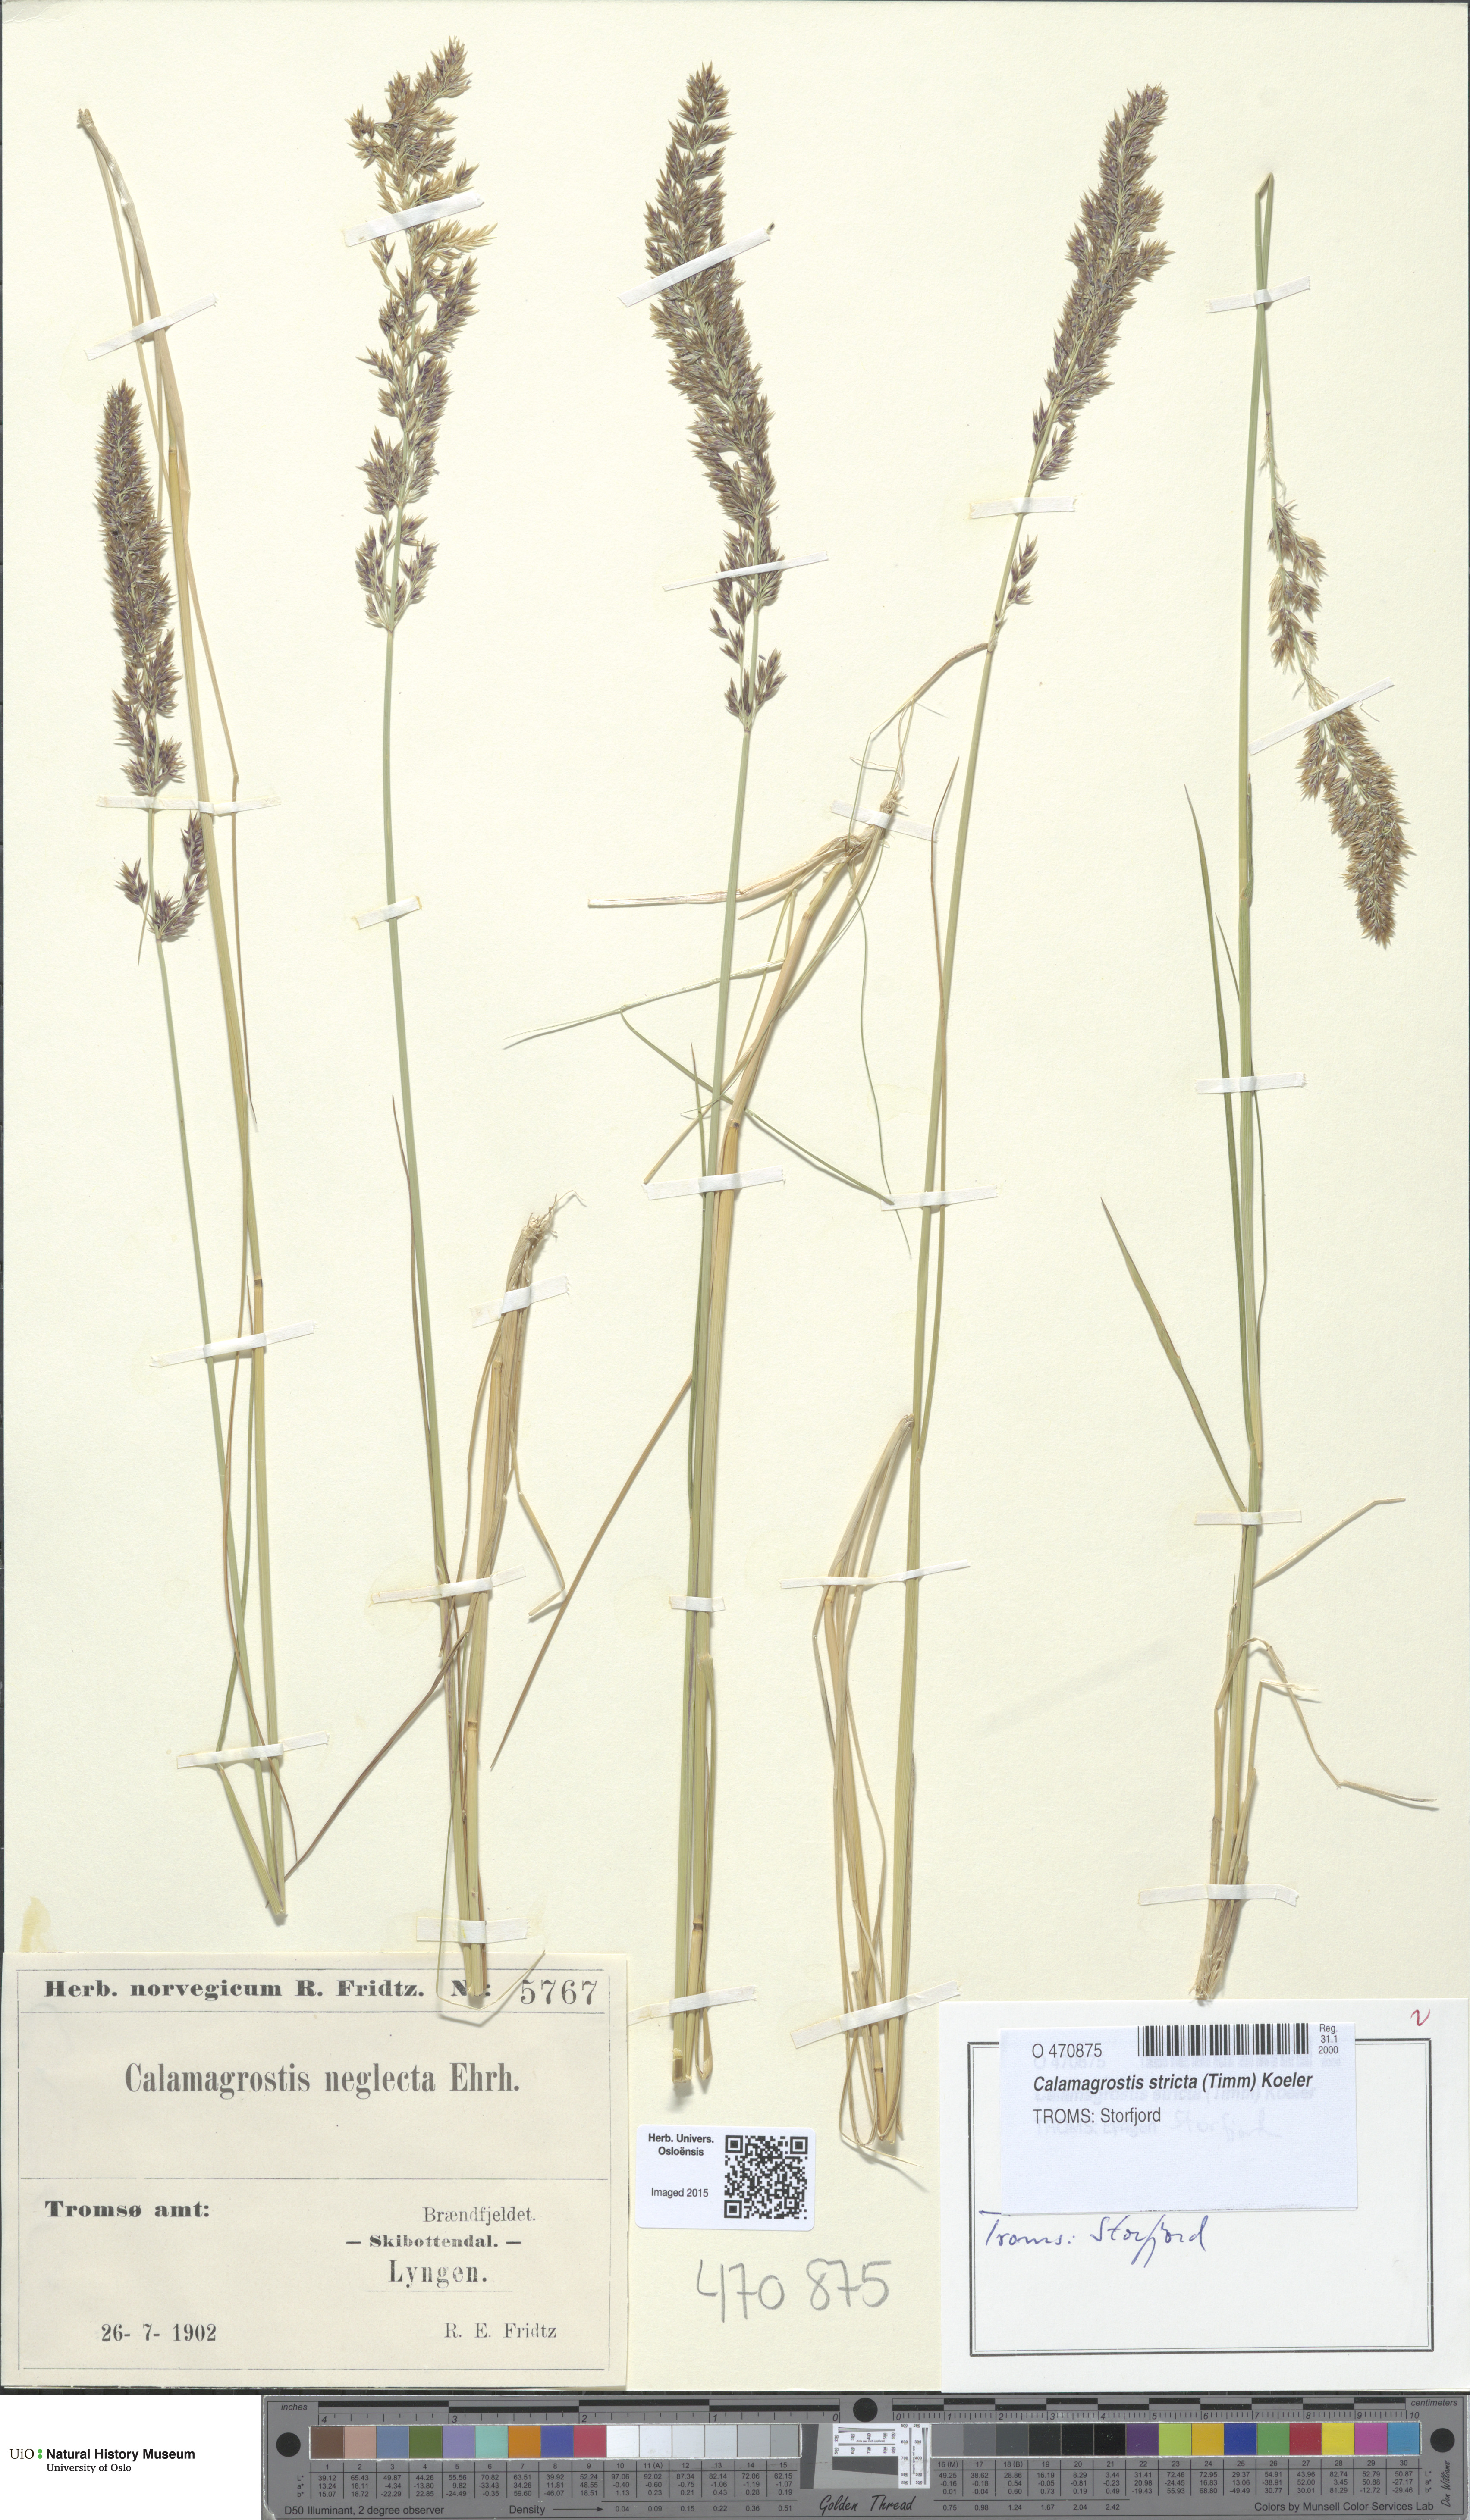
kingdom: Plantae
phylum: Tracheophyta
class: Liliopsida
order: Poales
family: Poaceae
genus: Achnatherum
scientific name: Achnatherum calamagrostis
